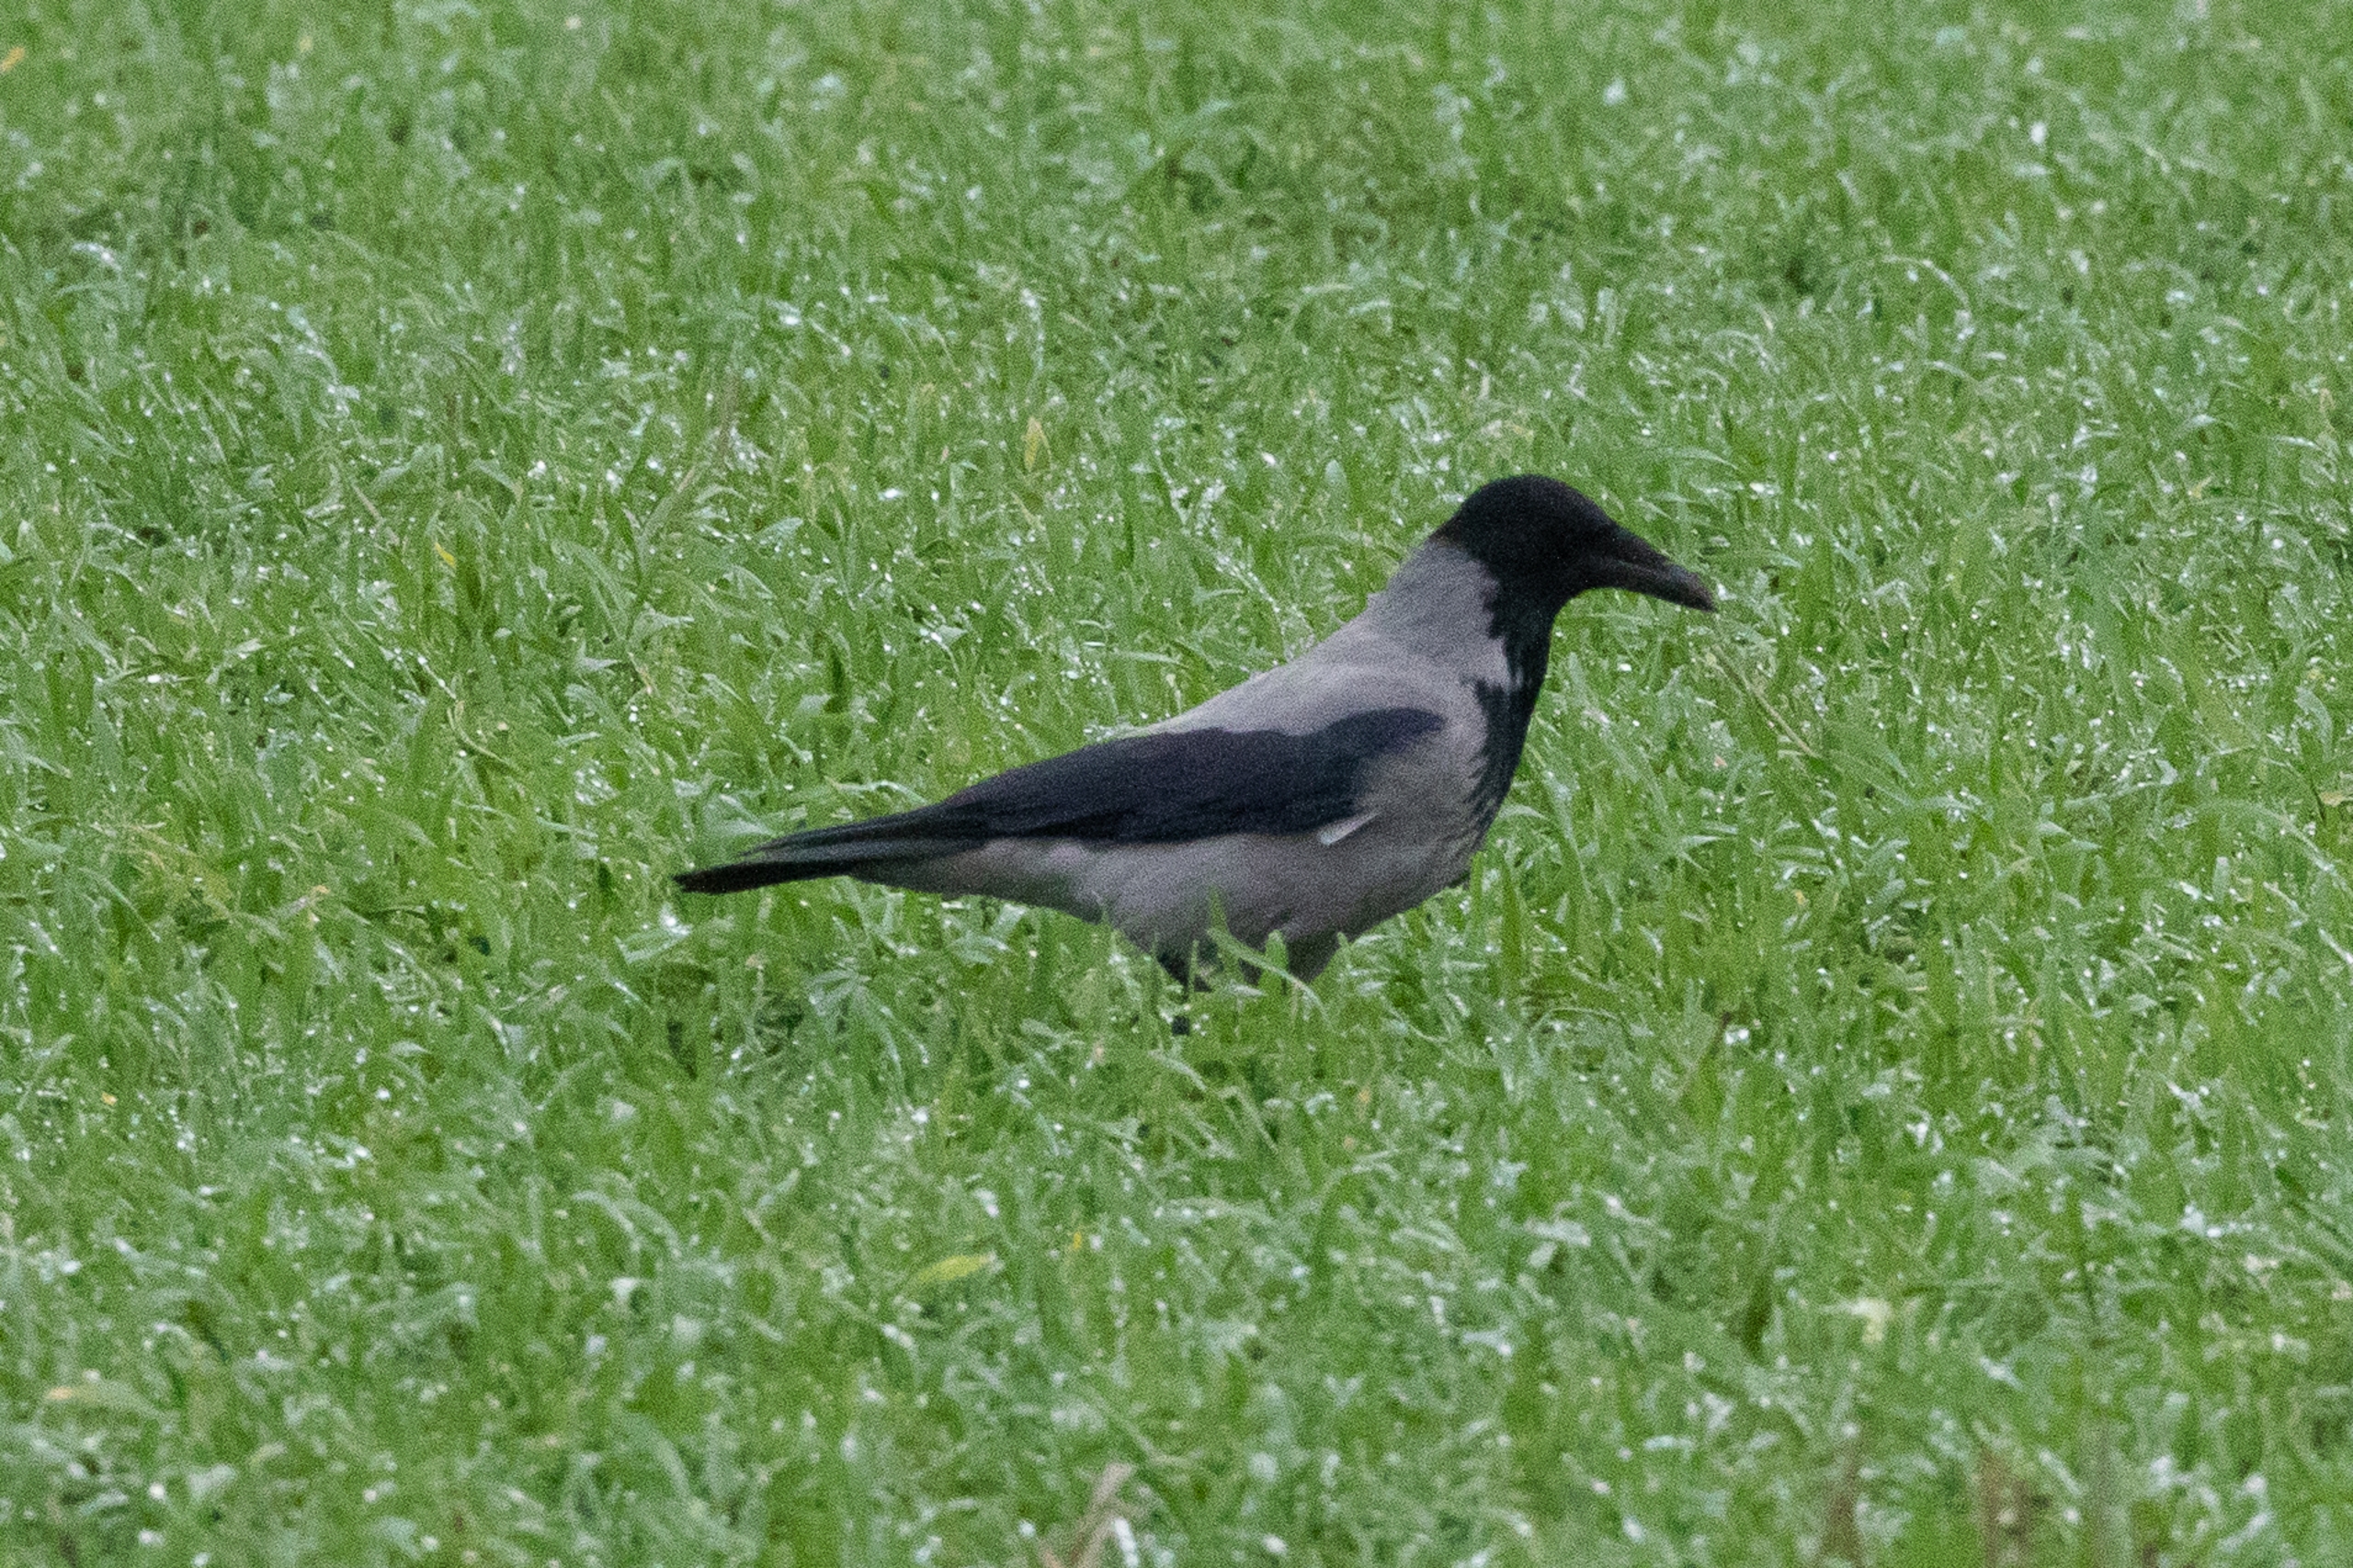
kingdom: Animalia
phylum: Chordata
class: Aves
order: Passeriformes
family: Corvidae
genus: Corvus
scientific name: Corvus cornix
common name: Gråkrage
